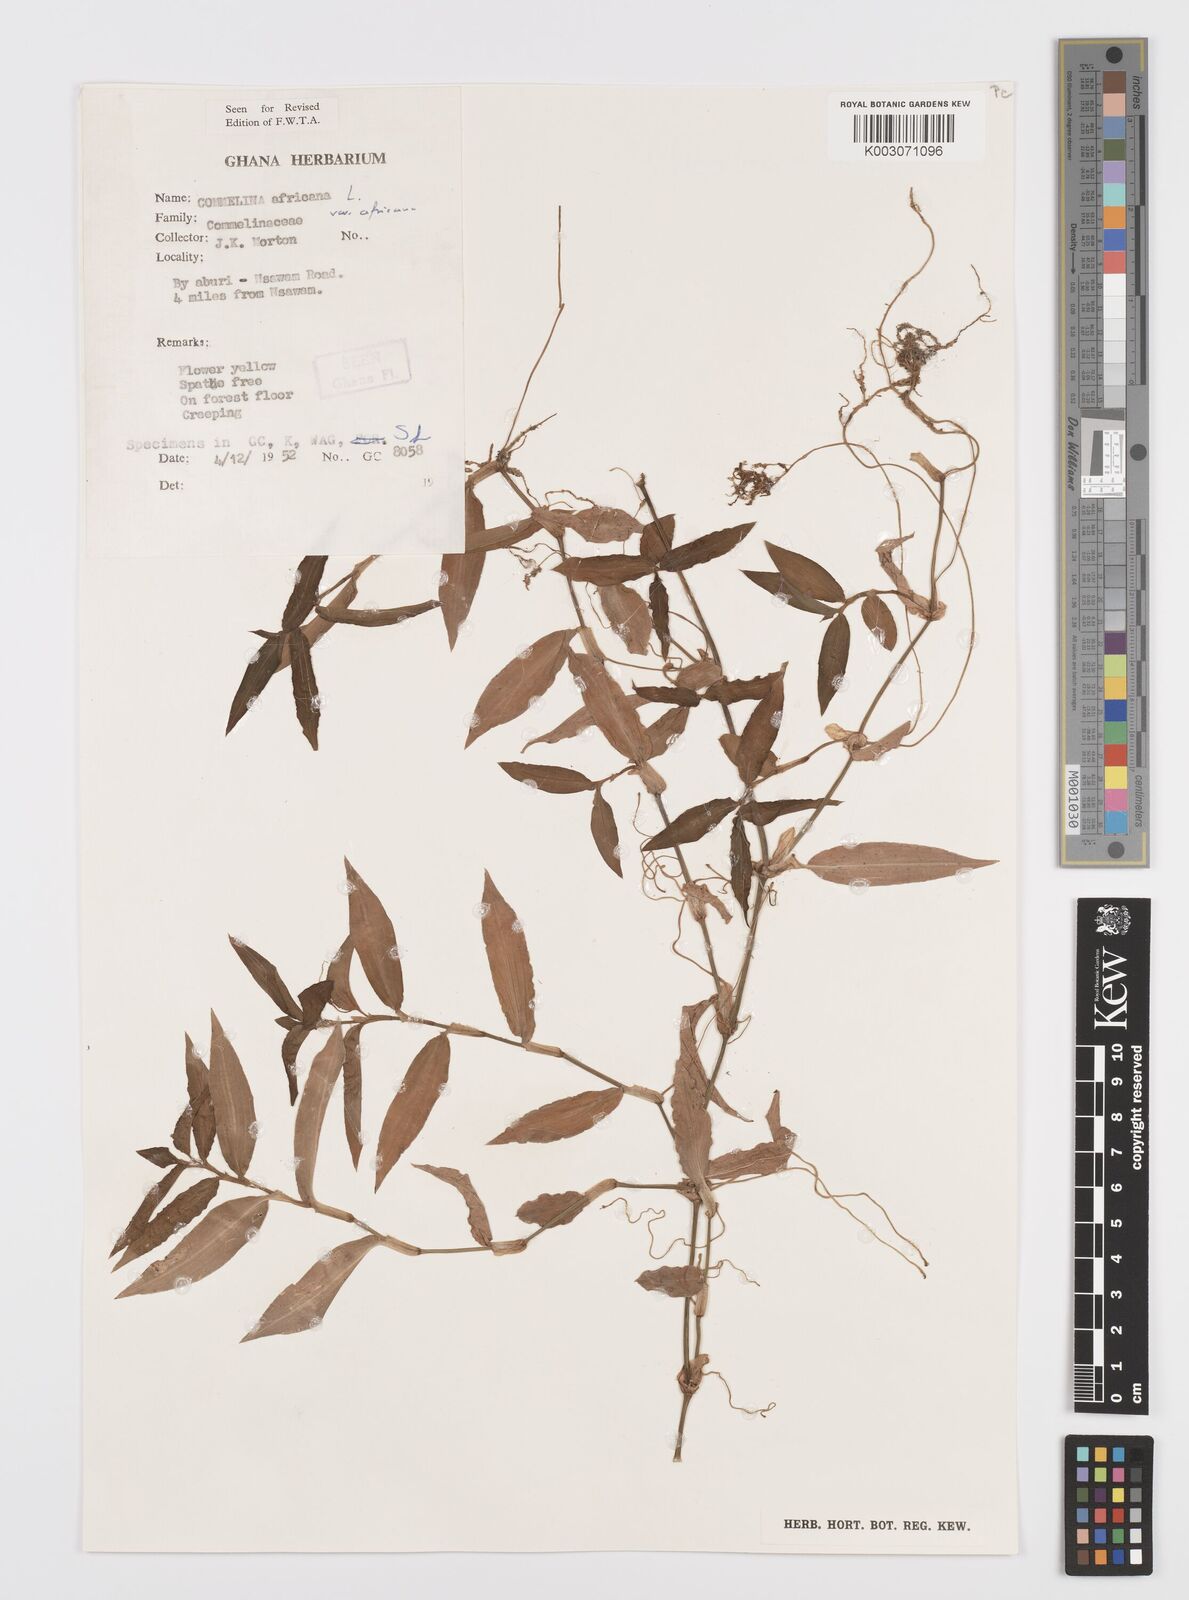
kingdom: Plantae
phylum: Tracheophyta
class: Liliopsida
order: Commelinales
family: Commelinaceae
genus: Commelina
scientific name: Commelina africana
